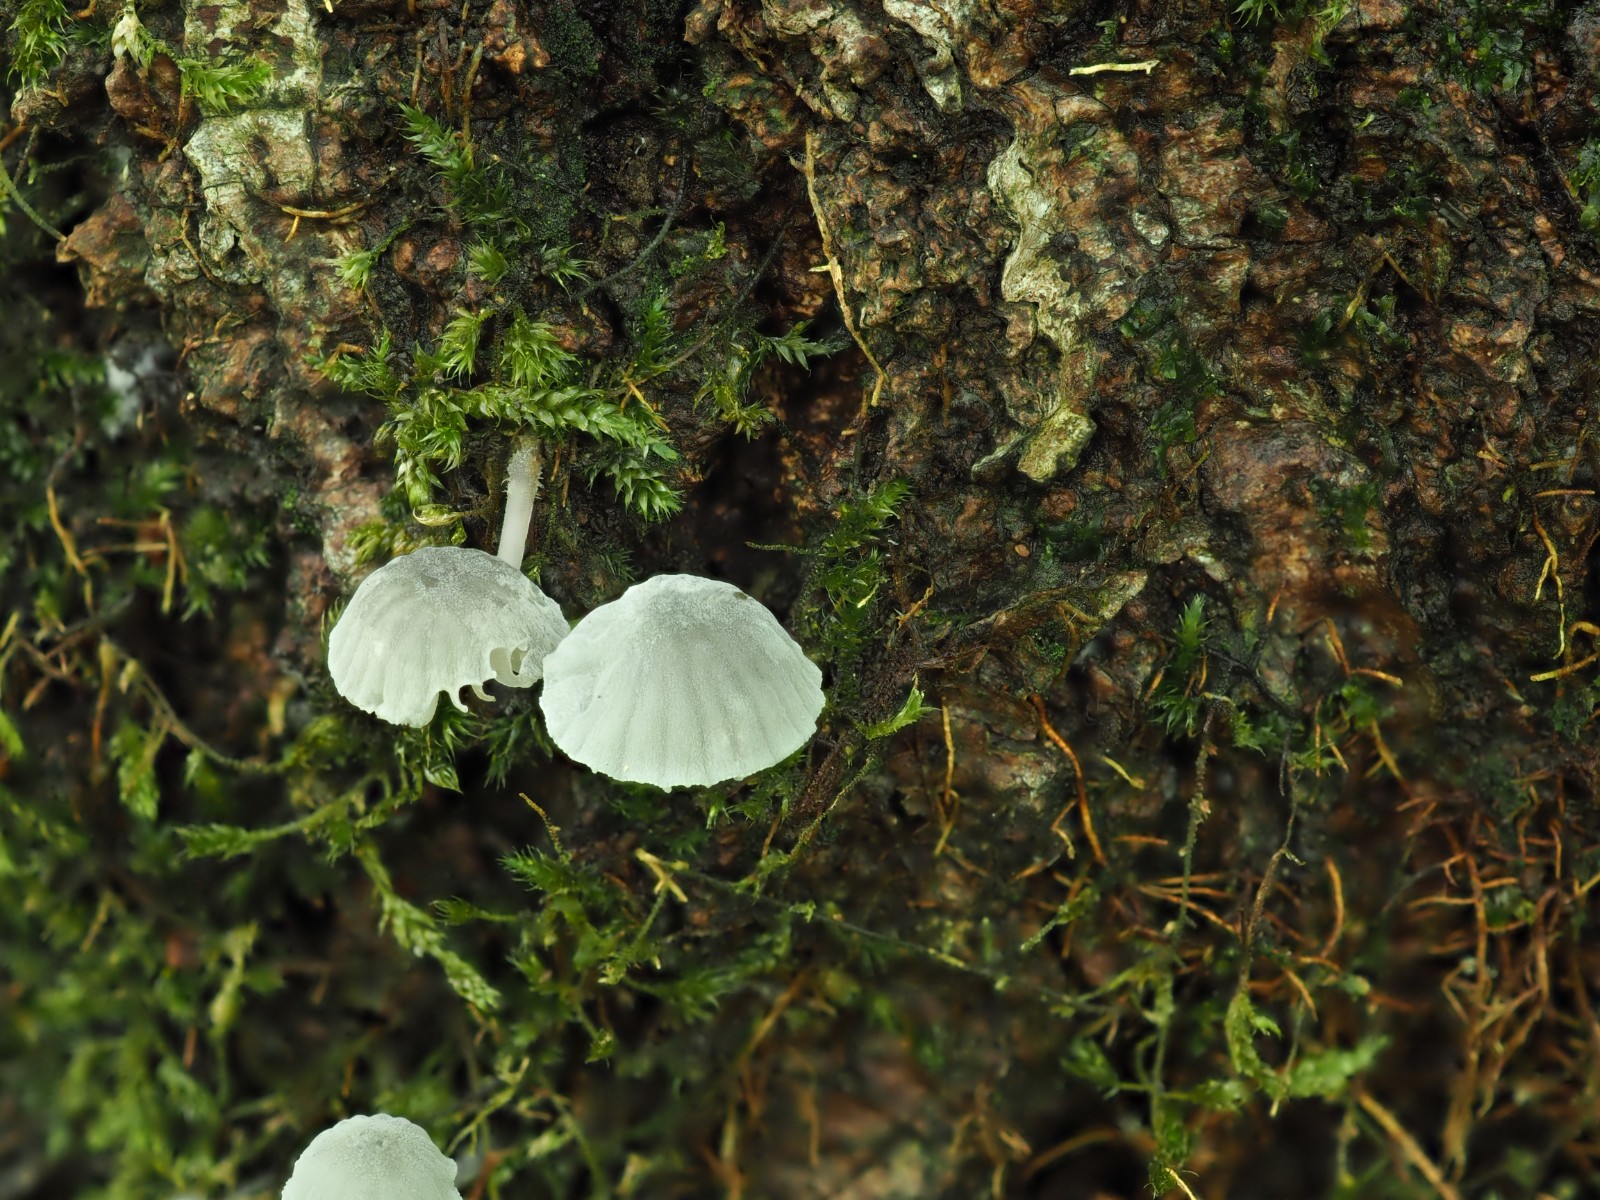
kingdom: Fungi
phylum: Basidiomycota
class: Agaricomycetes
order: Agaricales
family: Mycenaceae
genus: Mycena
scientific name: Mycena pseudocorticola
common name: gråblå bark-huesvamp
